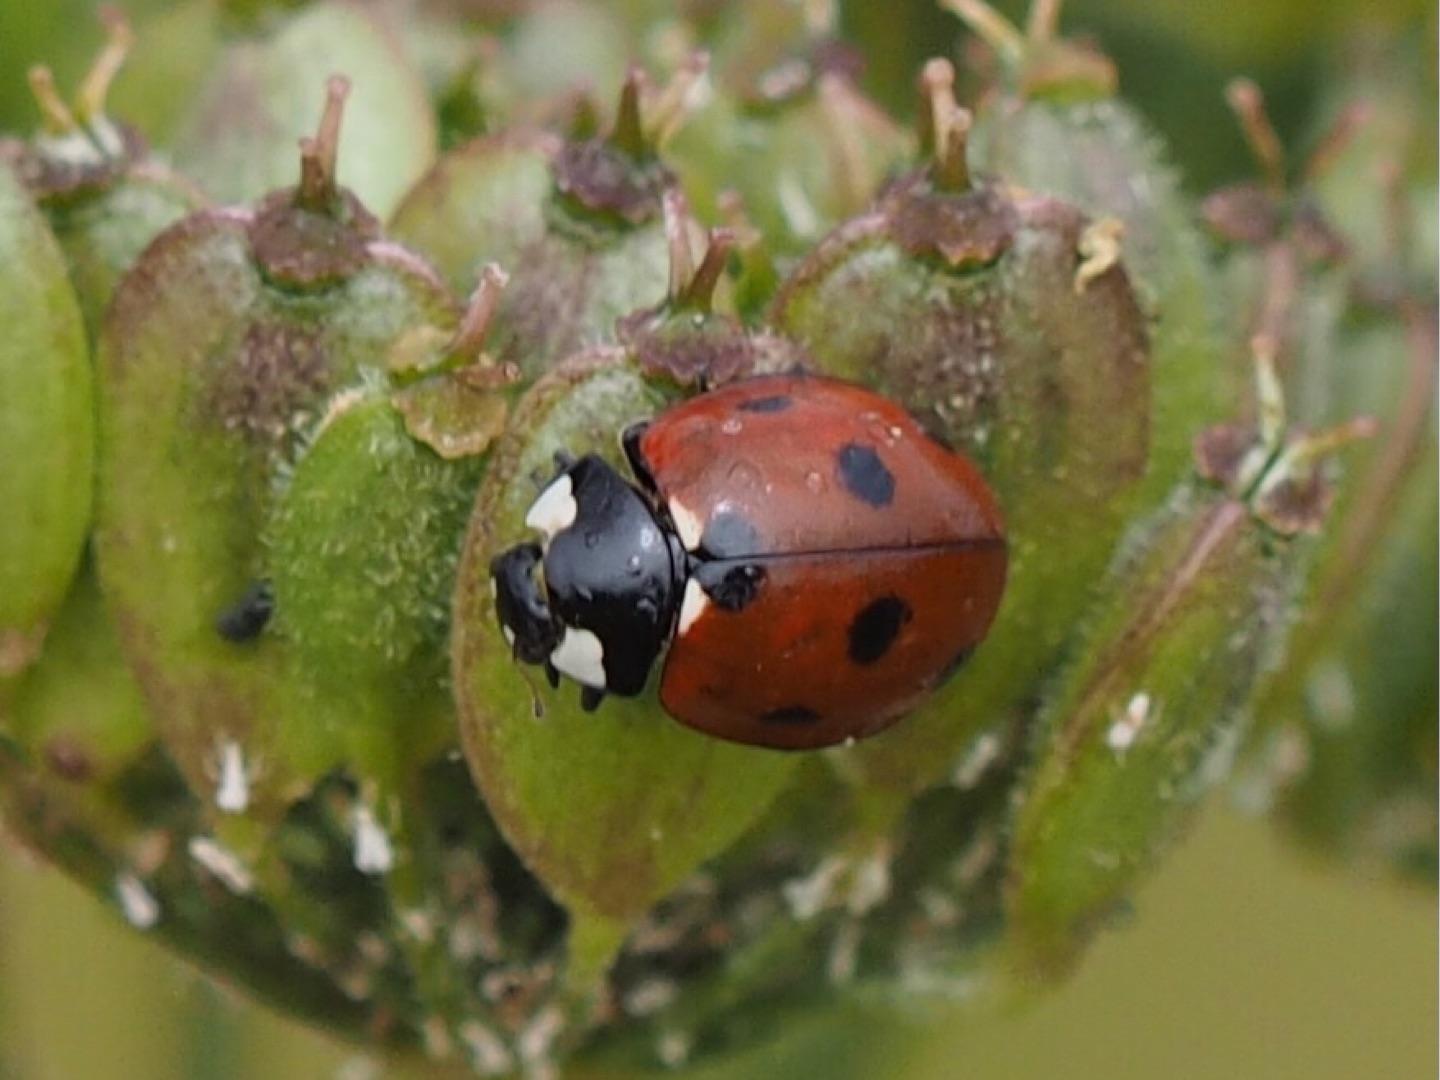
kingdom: Animalia
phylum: Arthropoda
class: Insecta
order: Coleoptera
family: Coccinellidae
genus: Coccinella
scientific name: Coccinella septempunctata
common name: Syvplettet mariehøne
